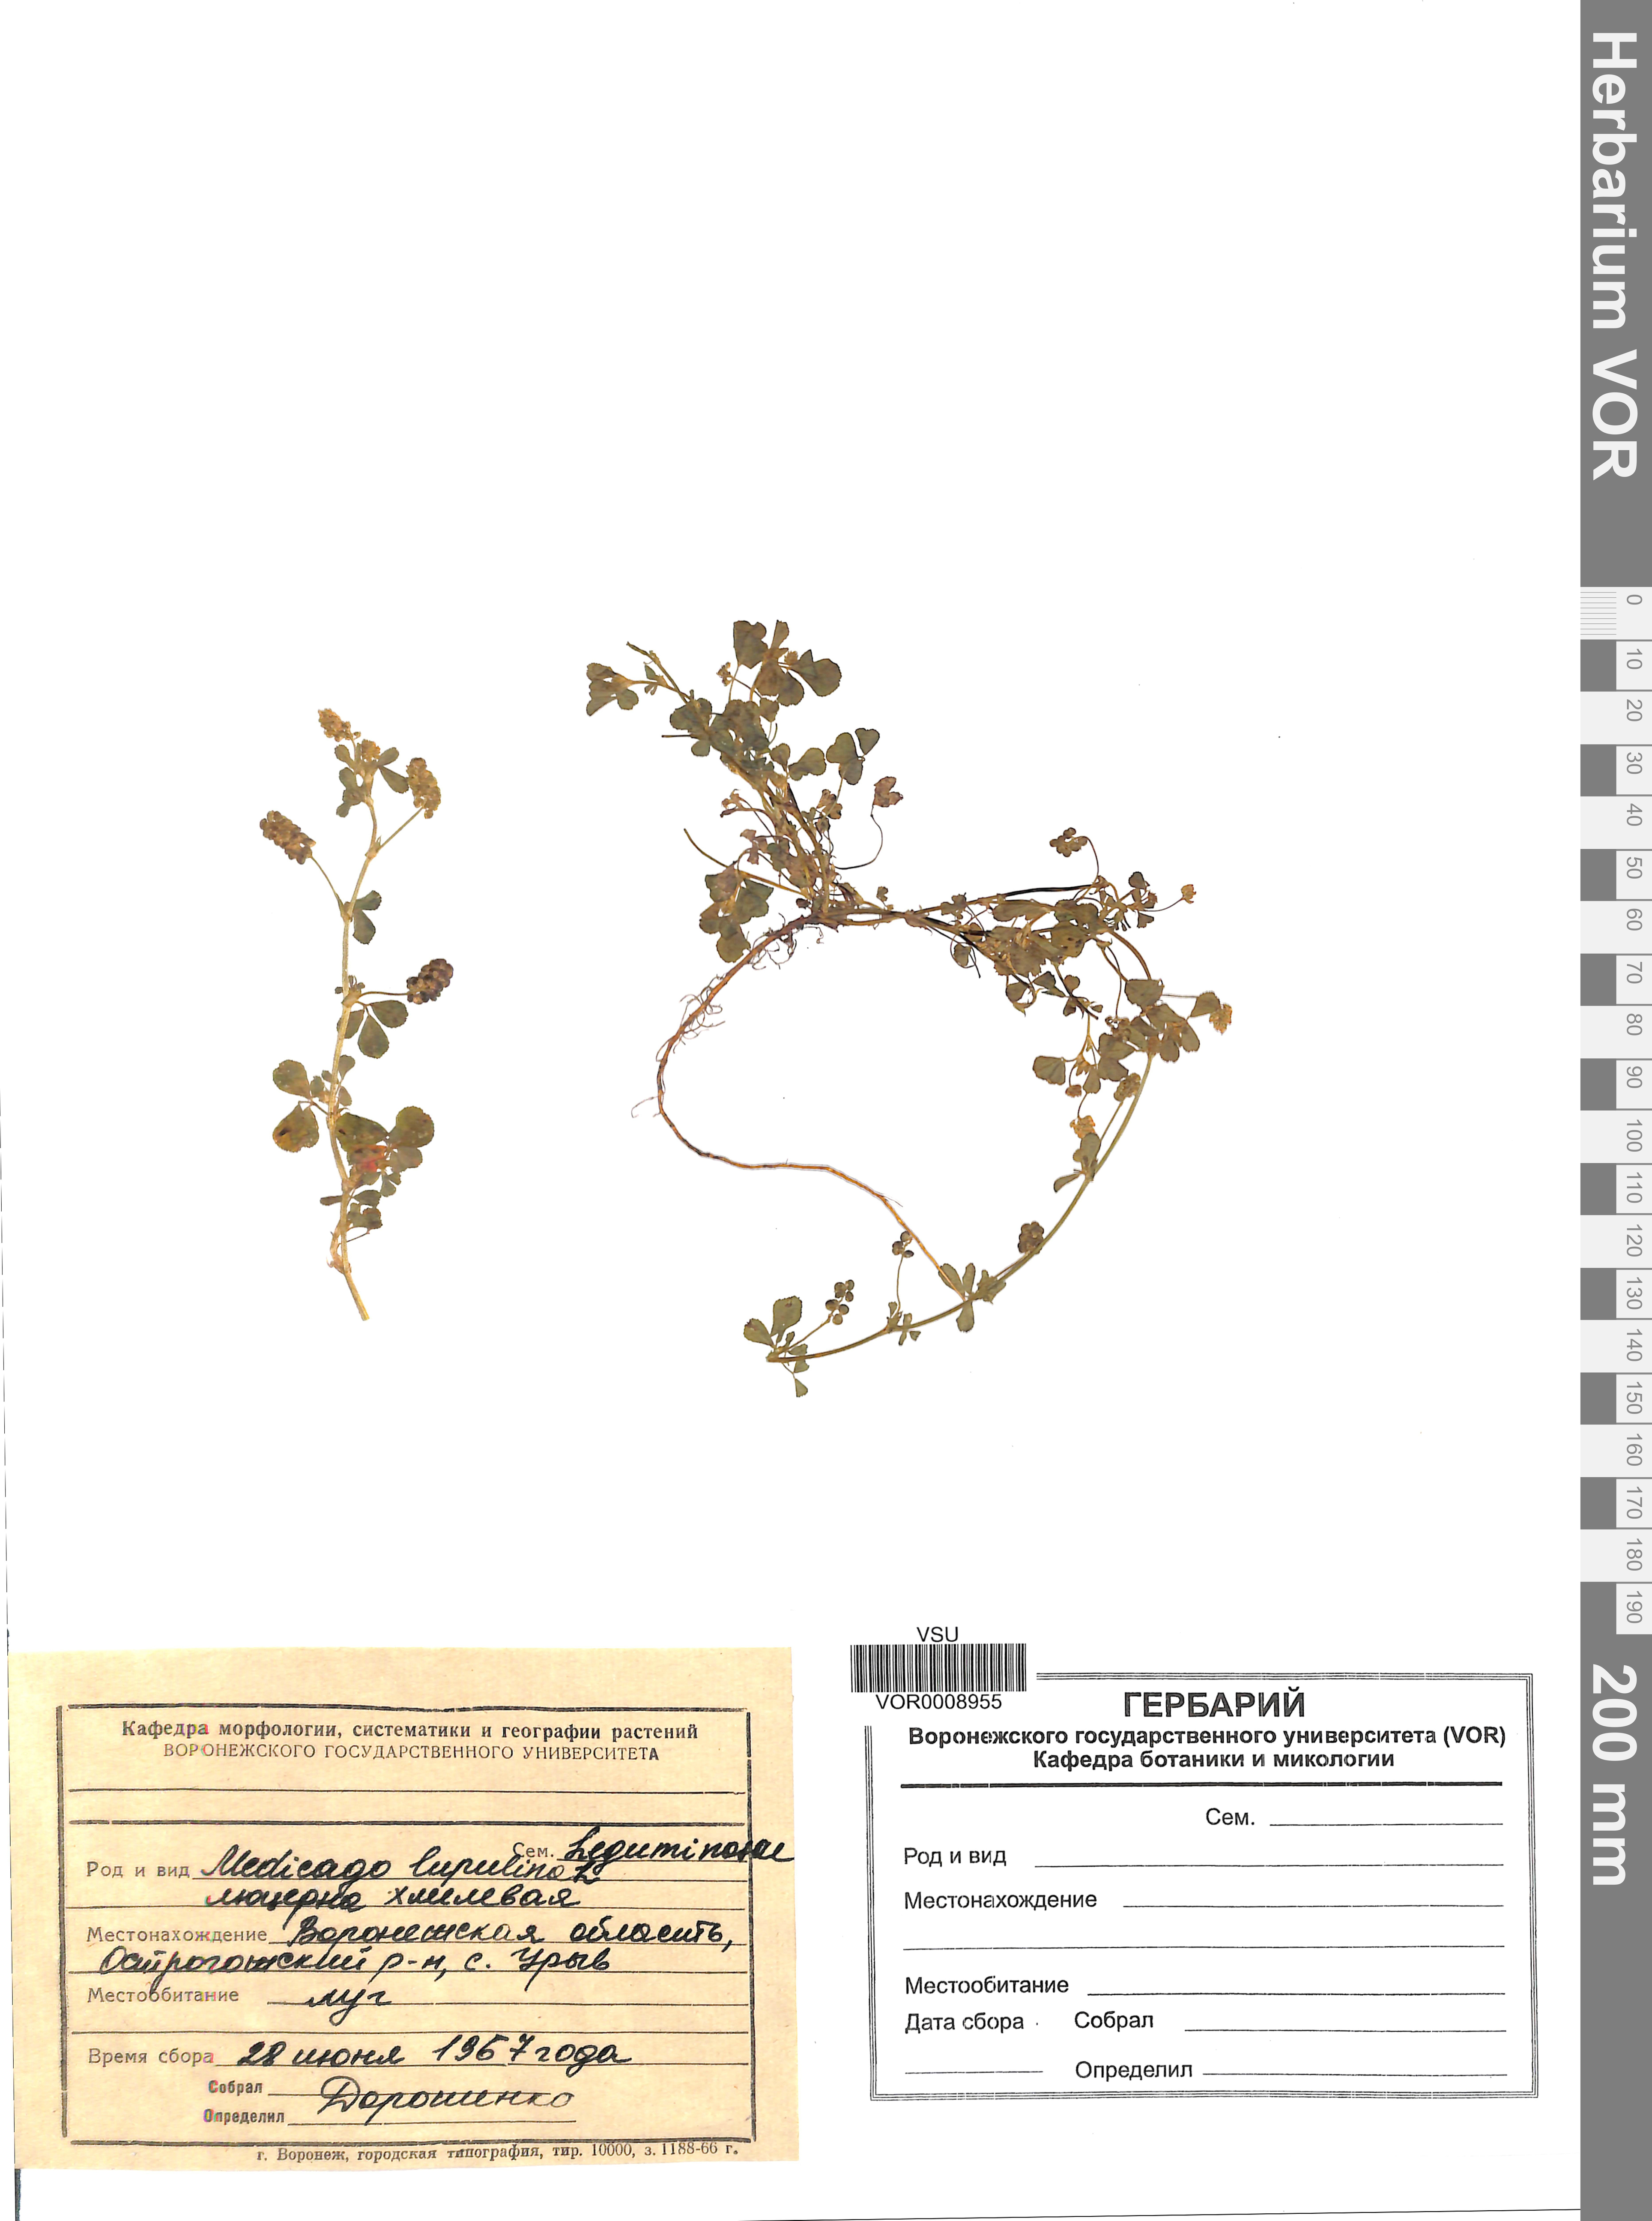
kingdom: Plantae
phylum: Tracheophyta
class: Magnoliopsida
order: Fabales
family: Fabaceae
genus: Medicago
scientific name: Medicago lupulina
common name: Black medick
